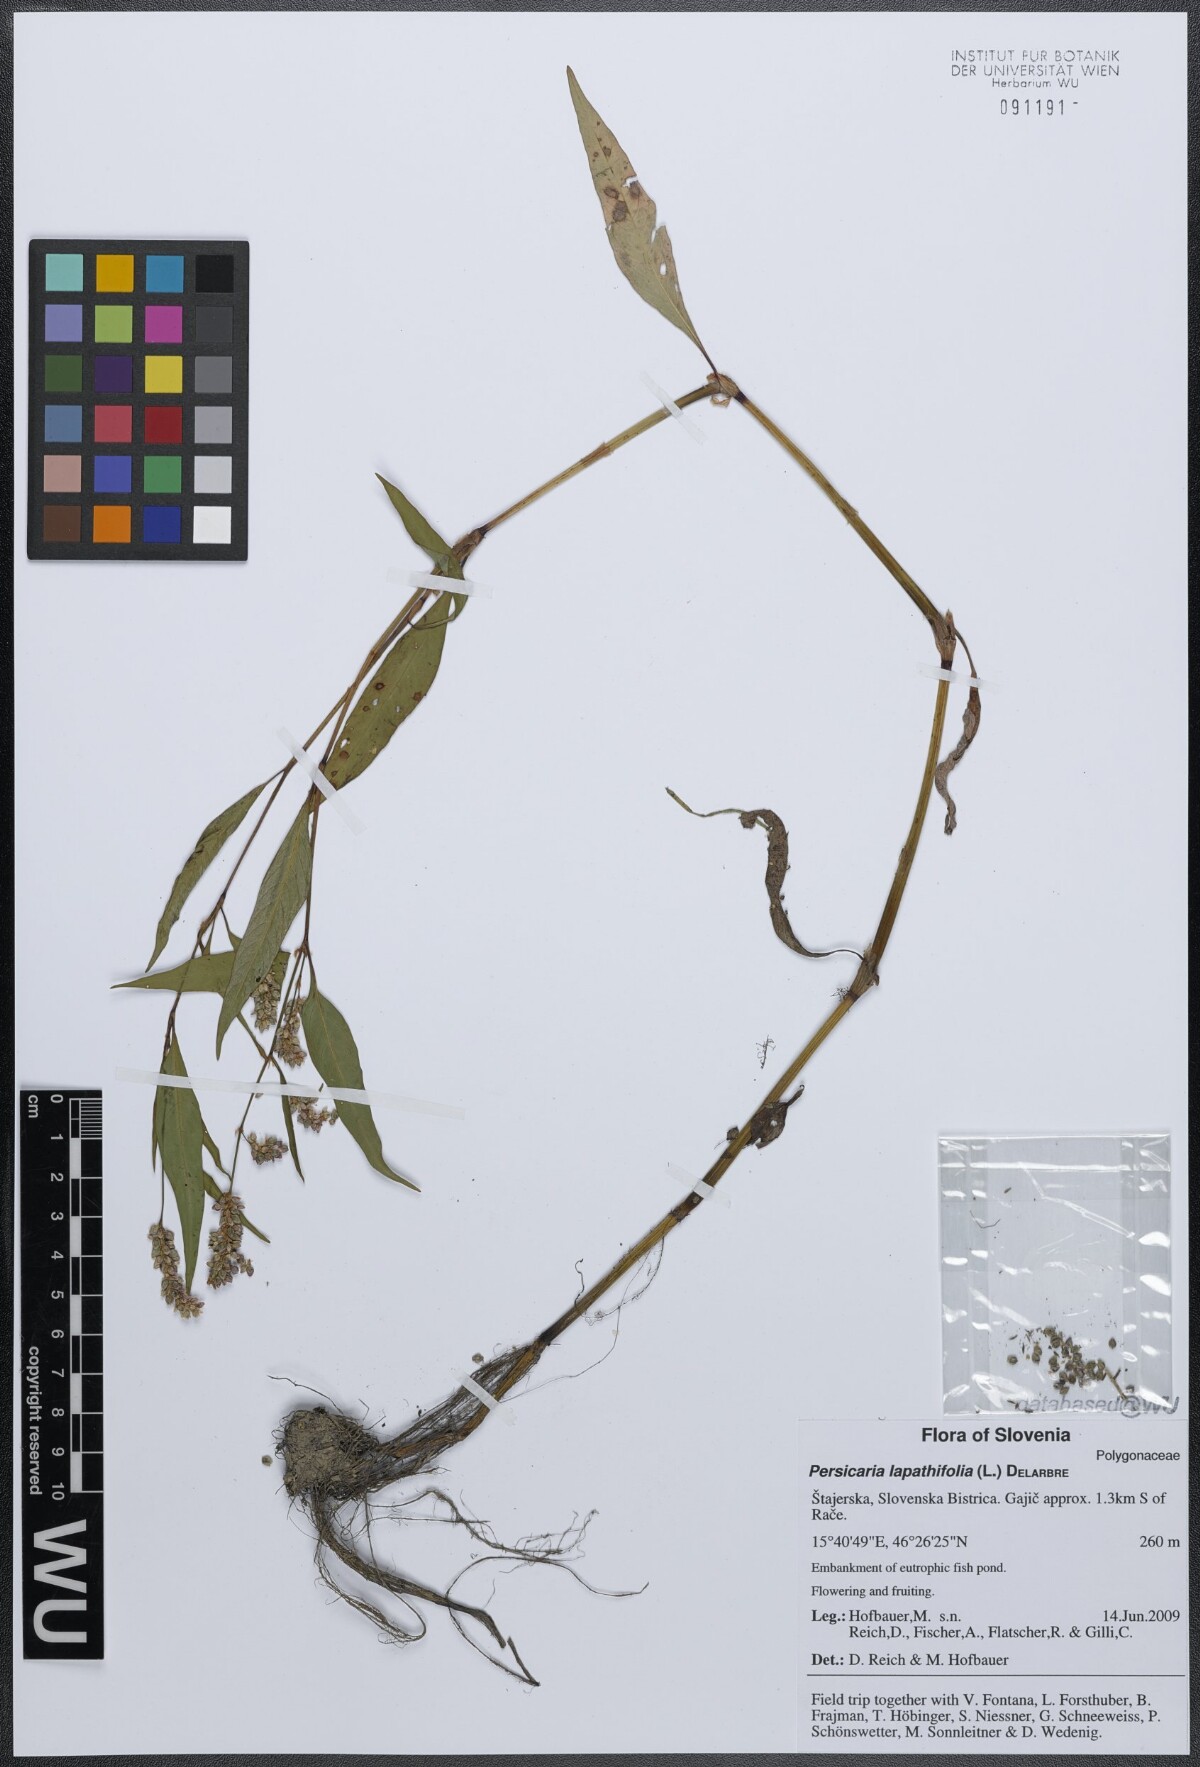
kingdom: Plantae
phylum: Tracheophyta
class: Magnoliopsida
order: Caryophyllales
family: Polygonaceae
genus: Persicaria
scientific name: Persicaria lapathifolia
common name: Curlytop knotweed
